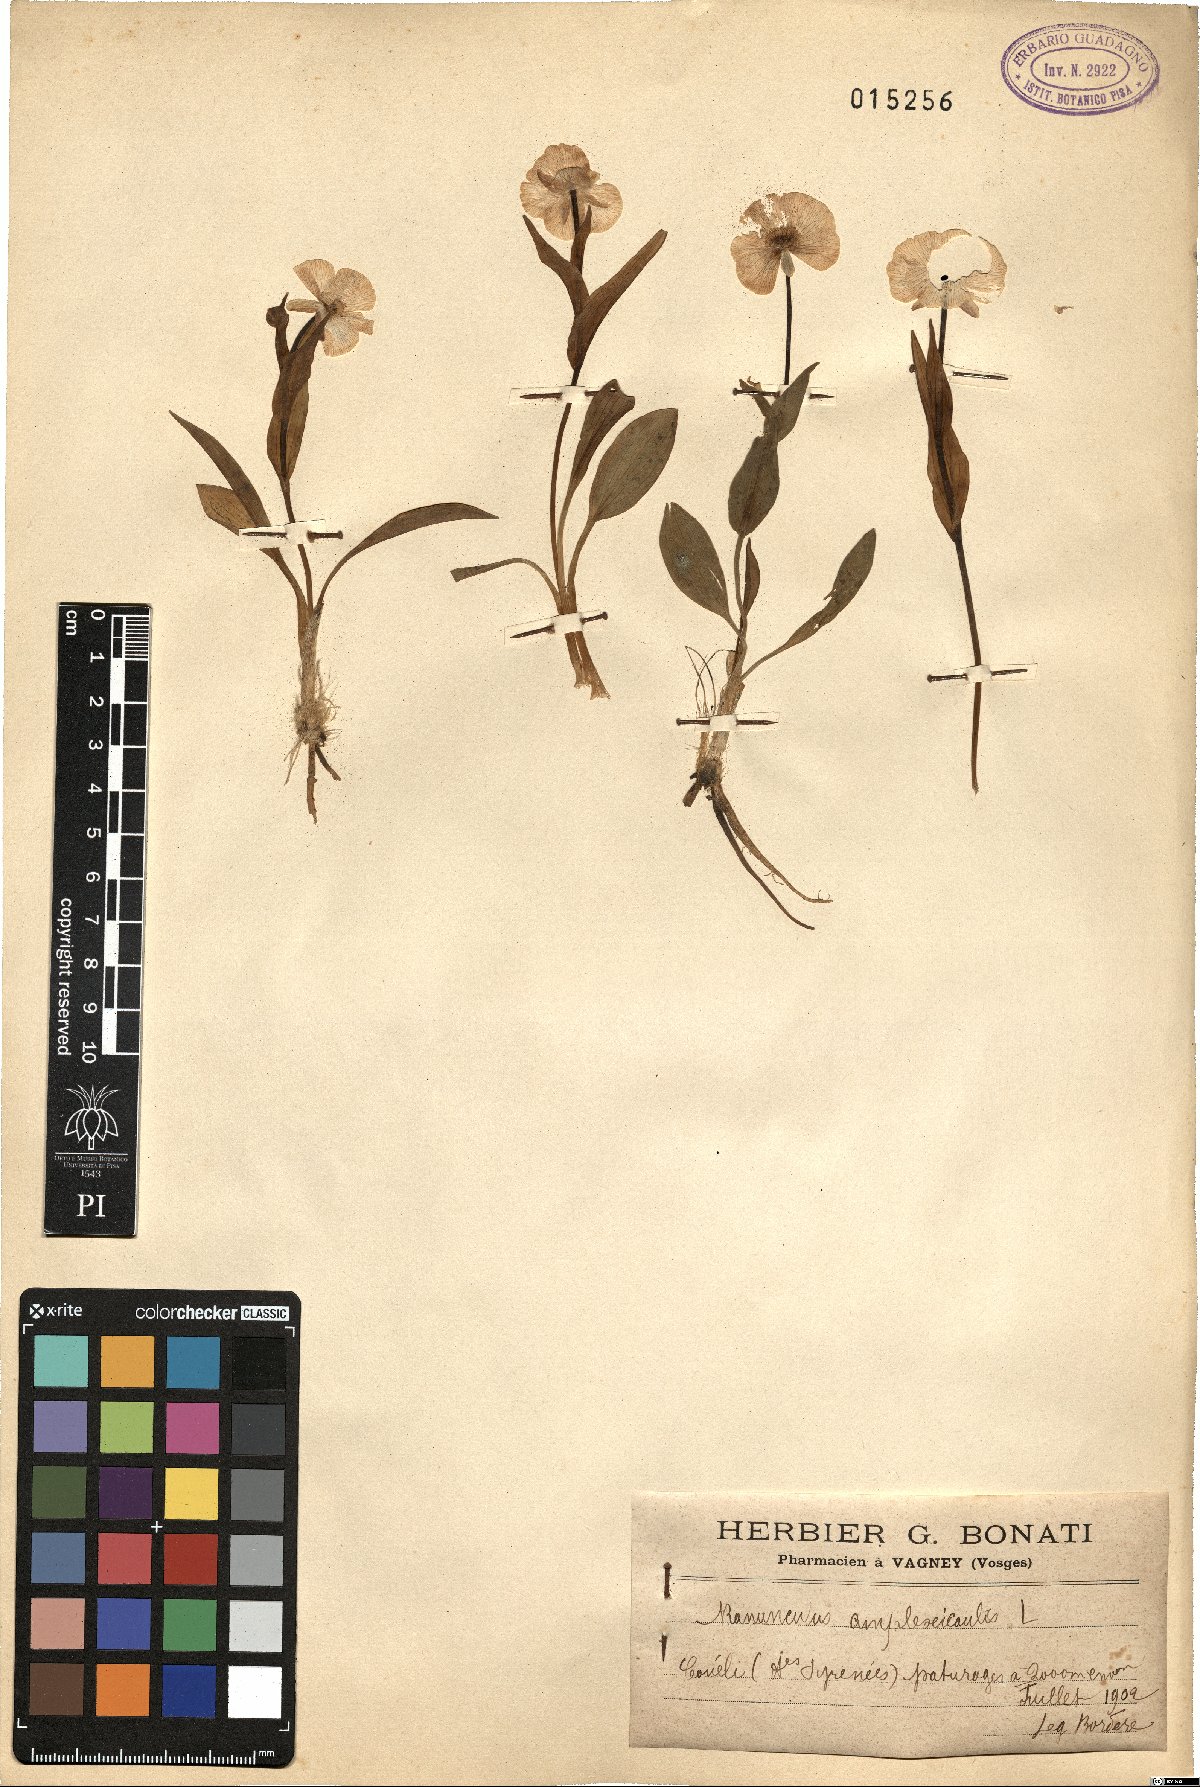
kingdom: Plantae
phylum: Tracheophyta
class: Magnoliopsida
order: Ranunculales
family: Ranunculaceae
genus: Ranunculus
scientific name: Ranunculus amplexicaulis
